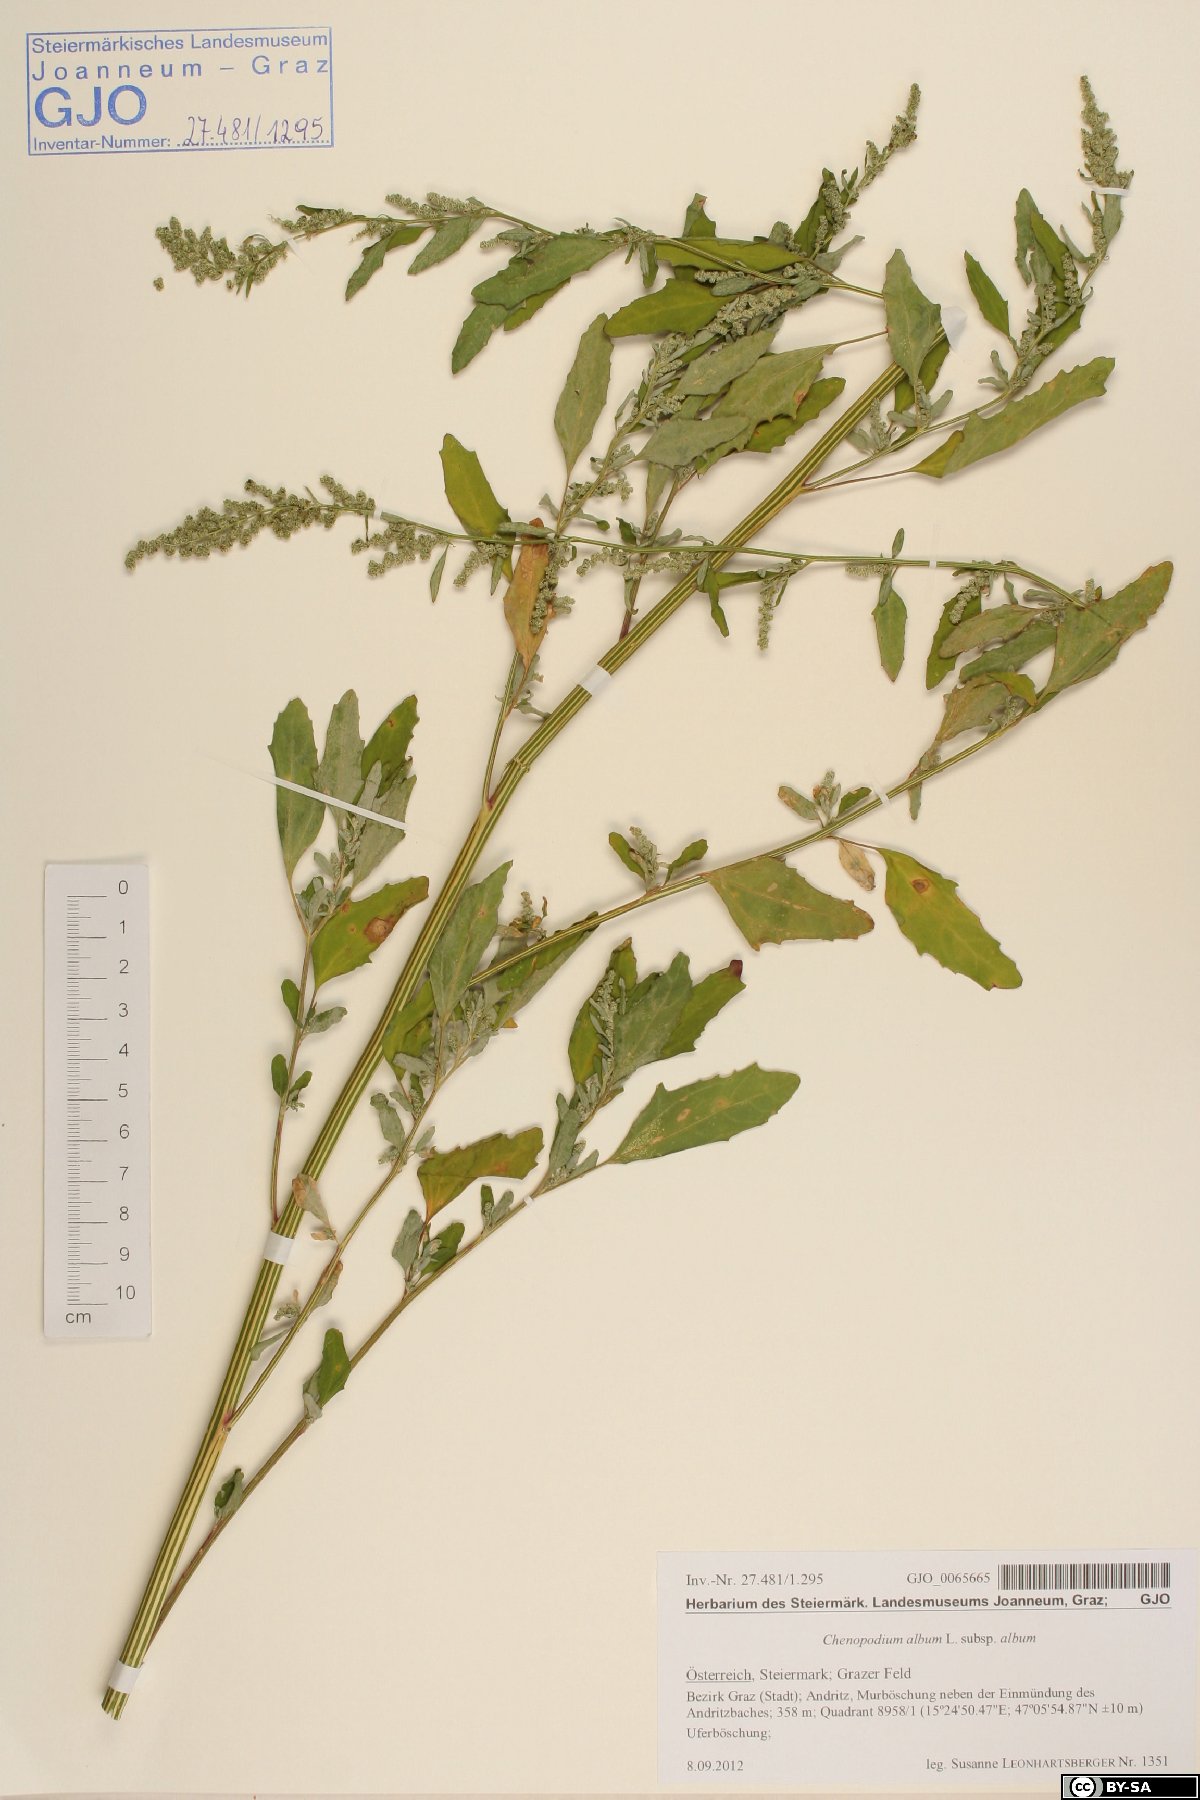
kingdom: Plantae
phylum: Tracheophyta
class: Magnoliopsida
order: Caryophyllales
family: Amaranthaceae
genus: Chenopodium
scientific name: Chenopodium album
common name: Fat-hen
